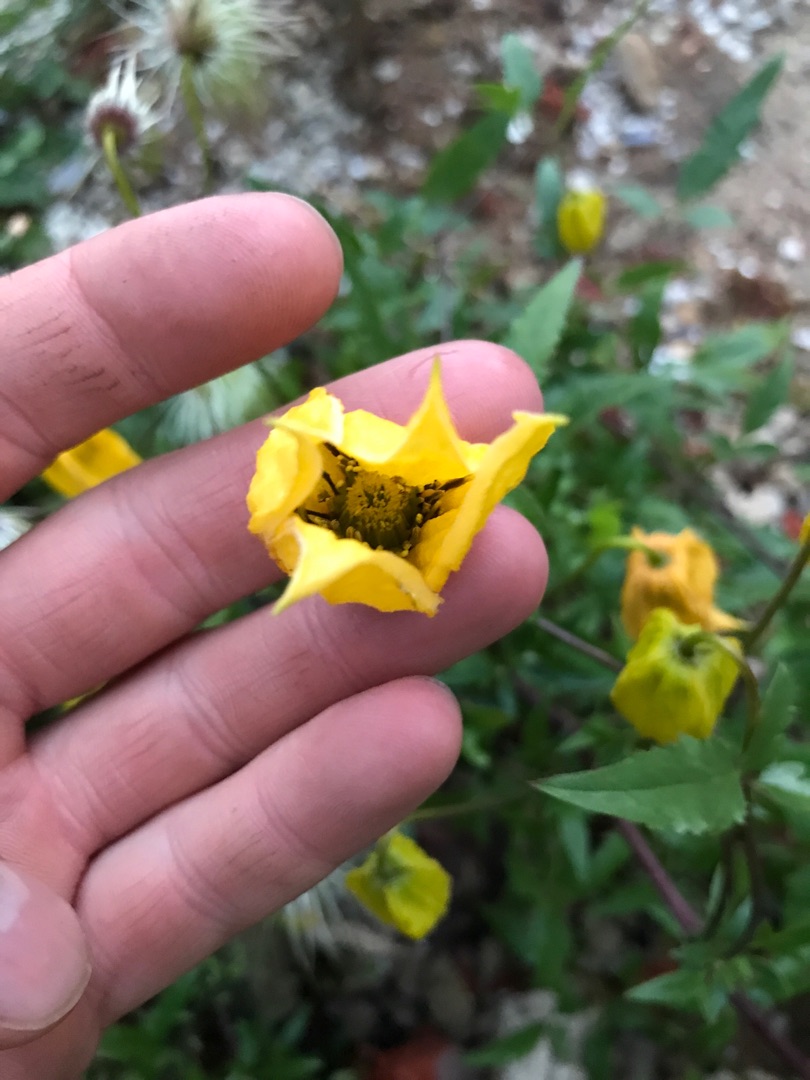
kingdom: Plantae
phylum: Tracheophyta
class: Magnoliopsida
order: Ranunculales
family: Ranunculaceae
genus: Clematis
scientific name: Clematis tangutica
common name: Gul skovranke
